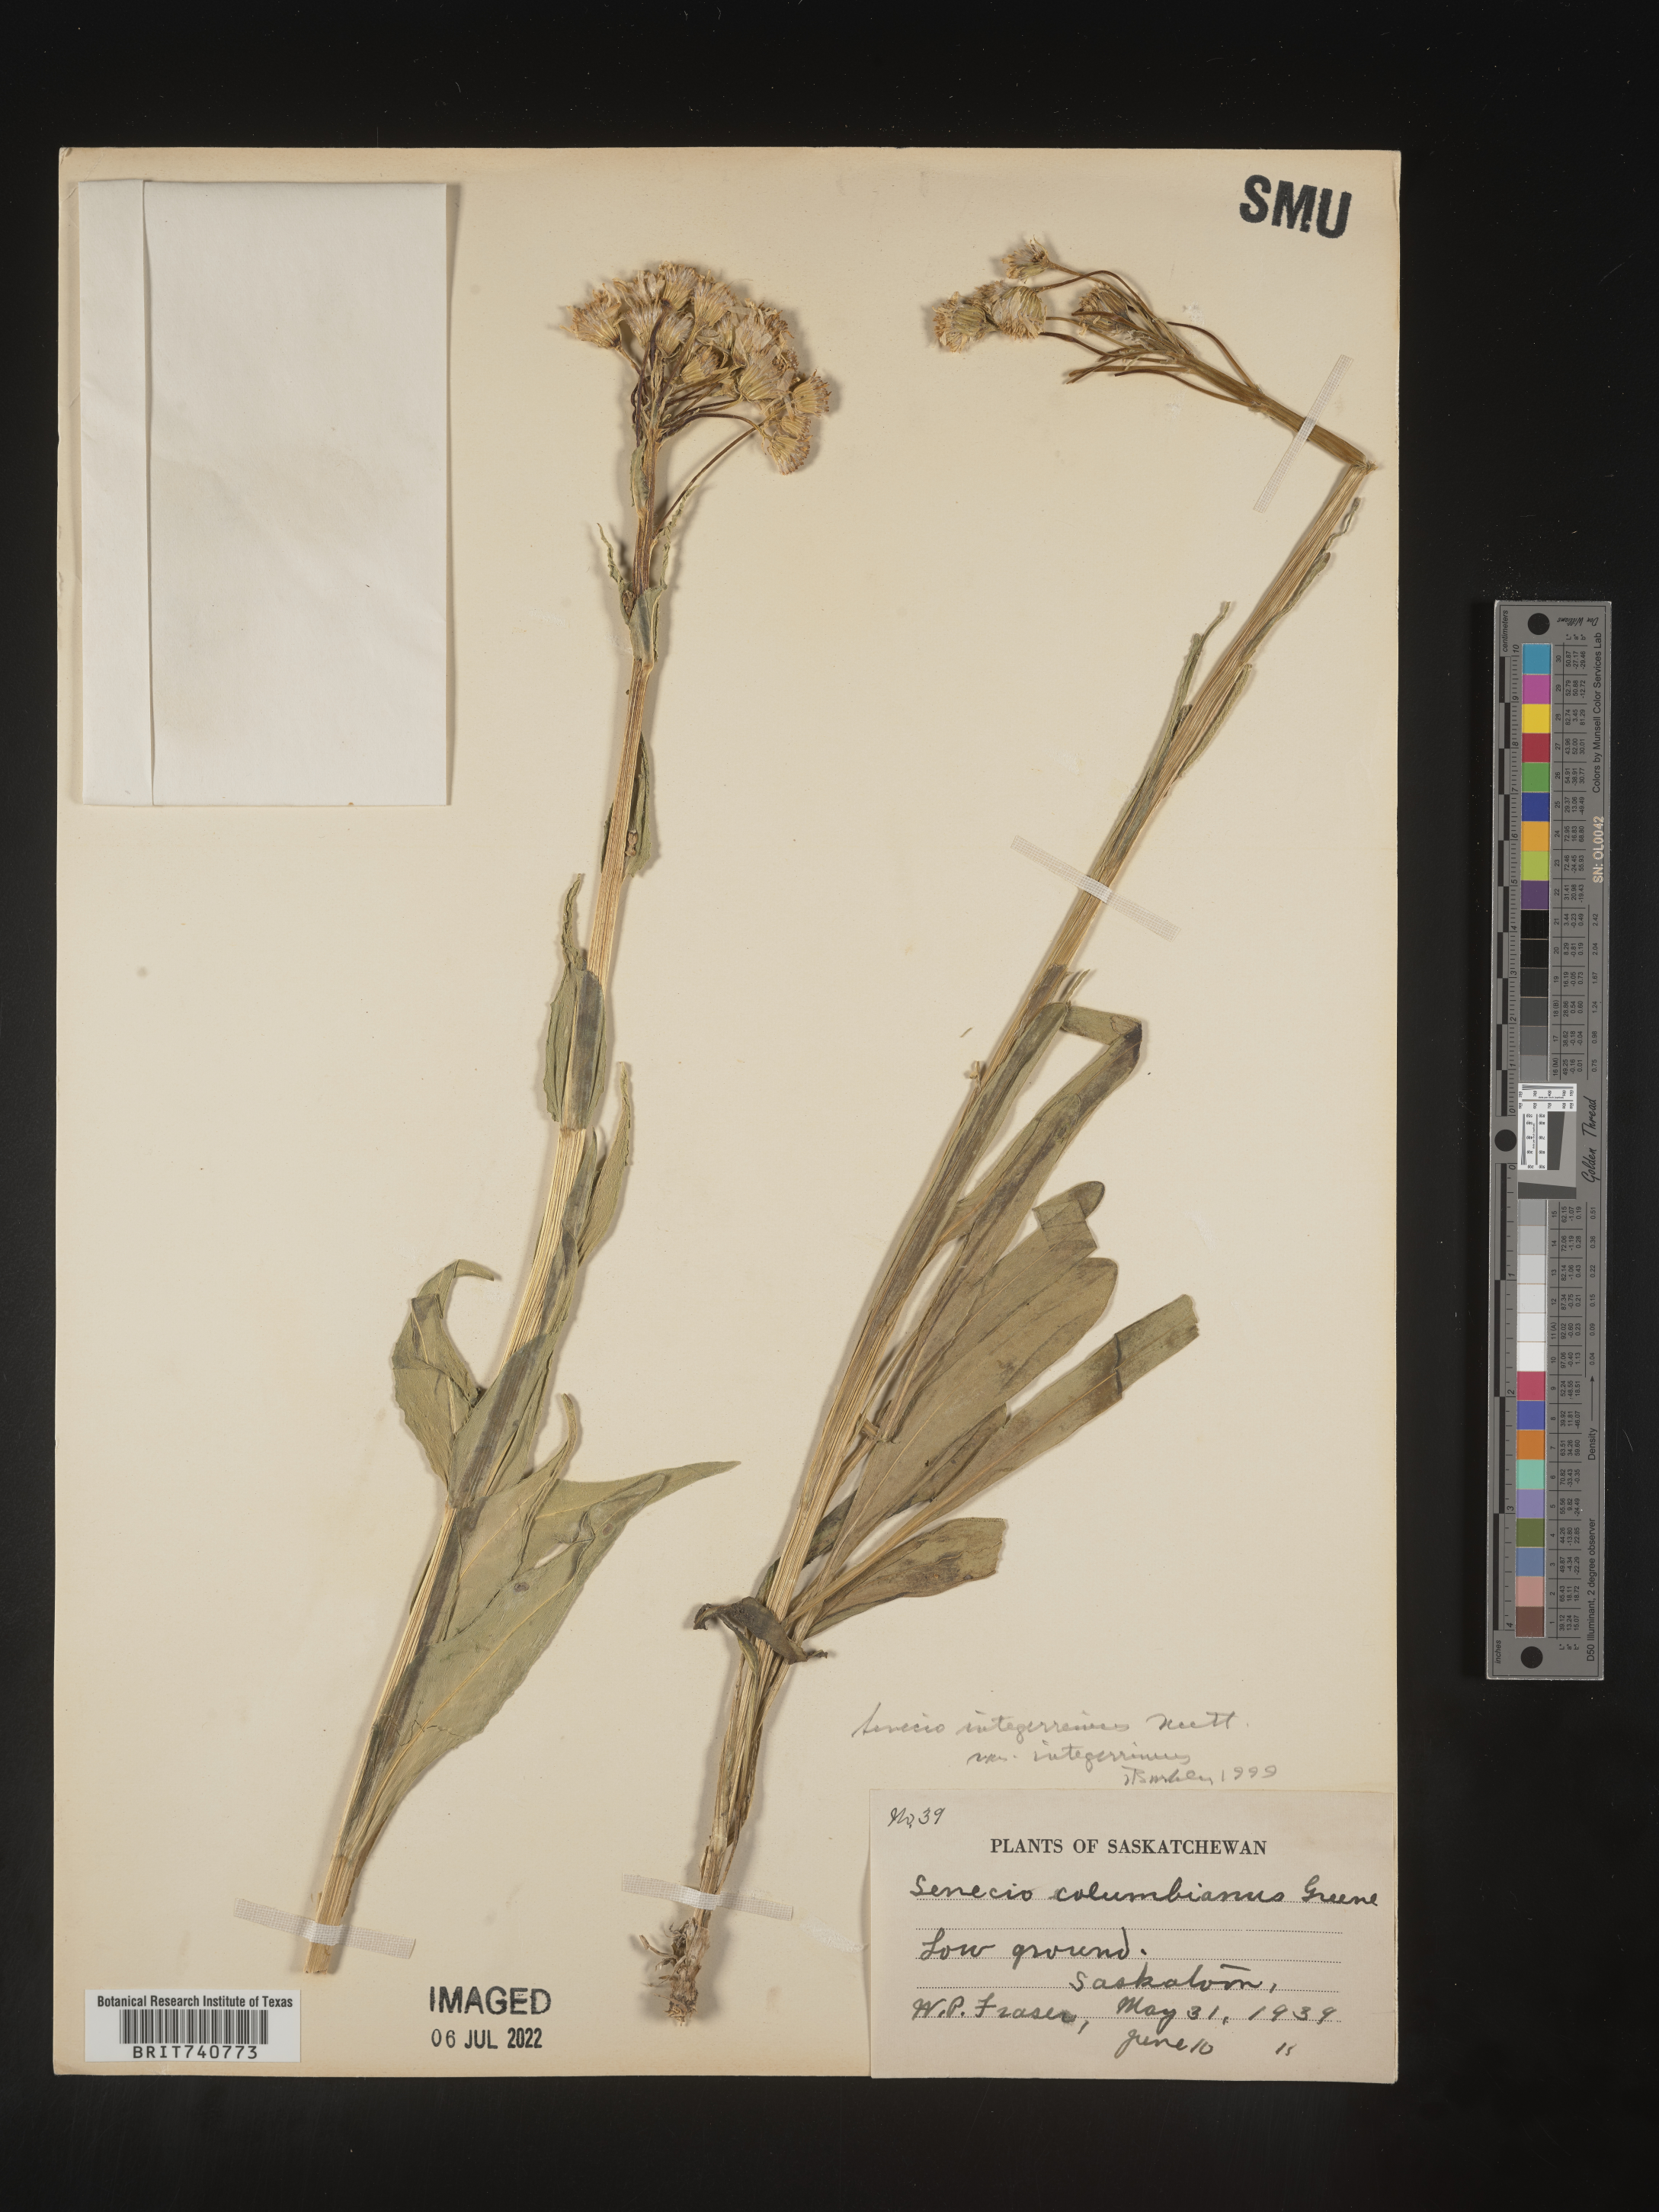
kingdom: Plantae
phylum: Tracheophyta
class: Magnoliopsida
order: Asterales
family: Asteraceae
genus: Senecio
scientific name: Senecio integerrimus
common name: Gaugeplant
